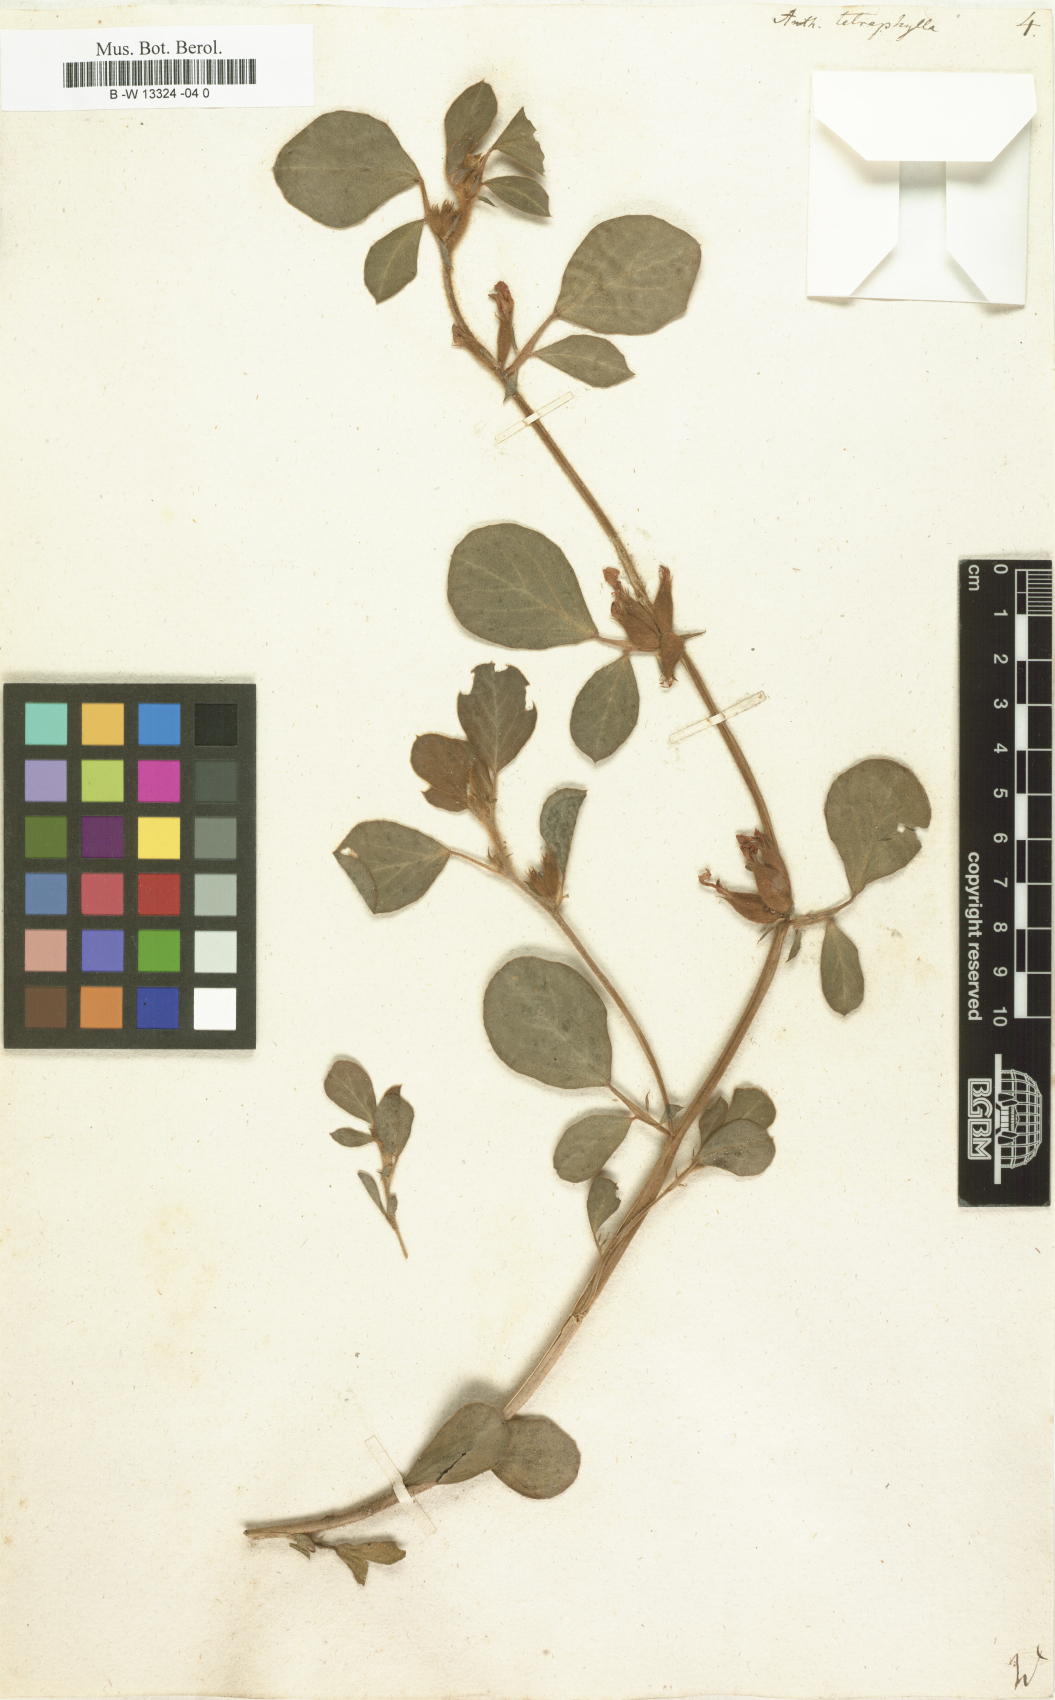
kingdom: Plantae
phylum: Tracheophyta
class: Magnoliopsida
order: Fabales
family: Fabaceae
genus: Tripodion
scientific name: Tripodion tetraphyllum
